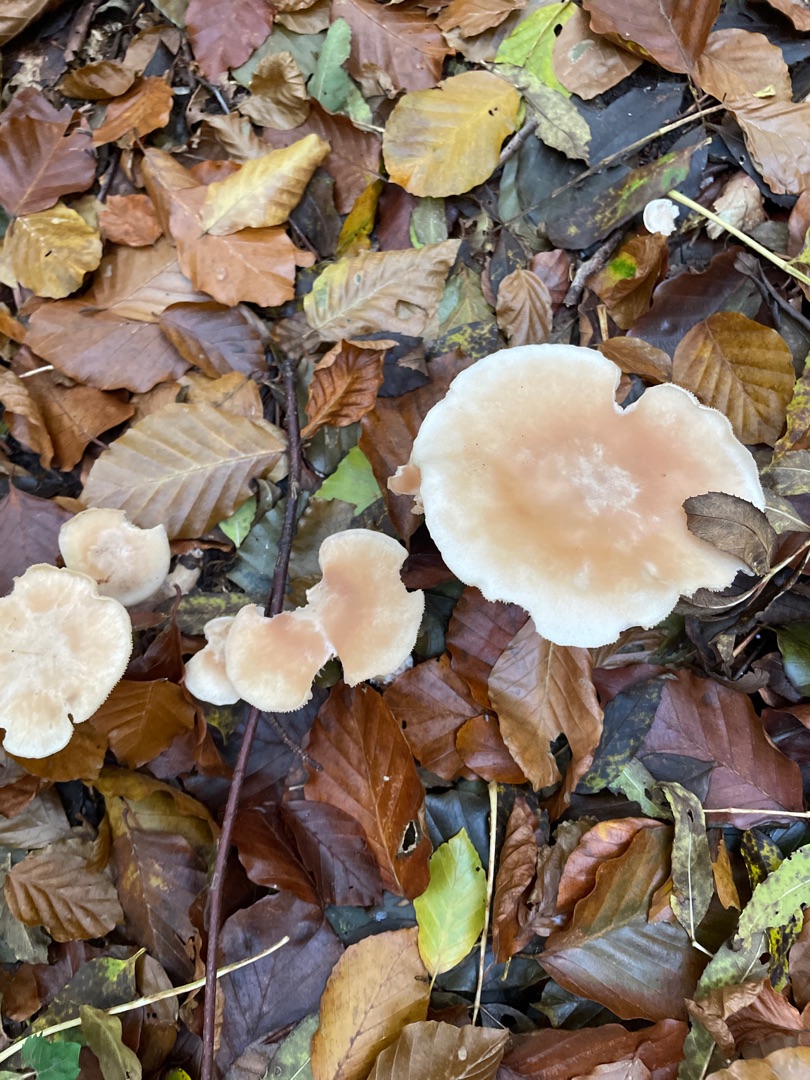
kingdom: Fungi
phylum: Basidiomycota
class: Agaricomycetes
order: Agaricales
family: Tricholomataceae
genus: Clitocybe
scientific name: Clitocybe nebularis
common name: Tåge-tragthat
